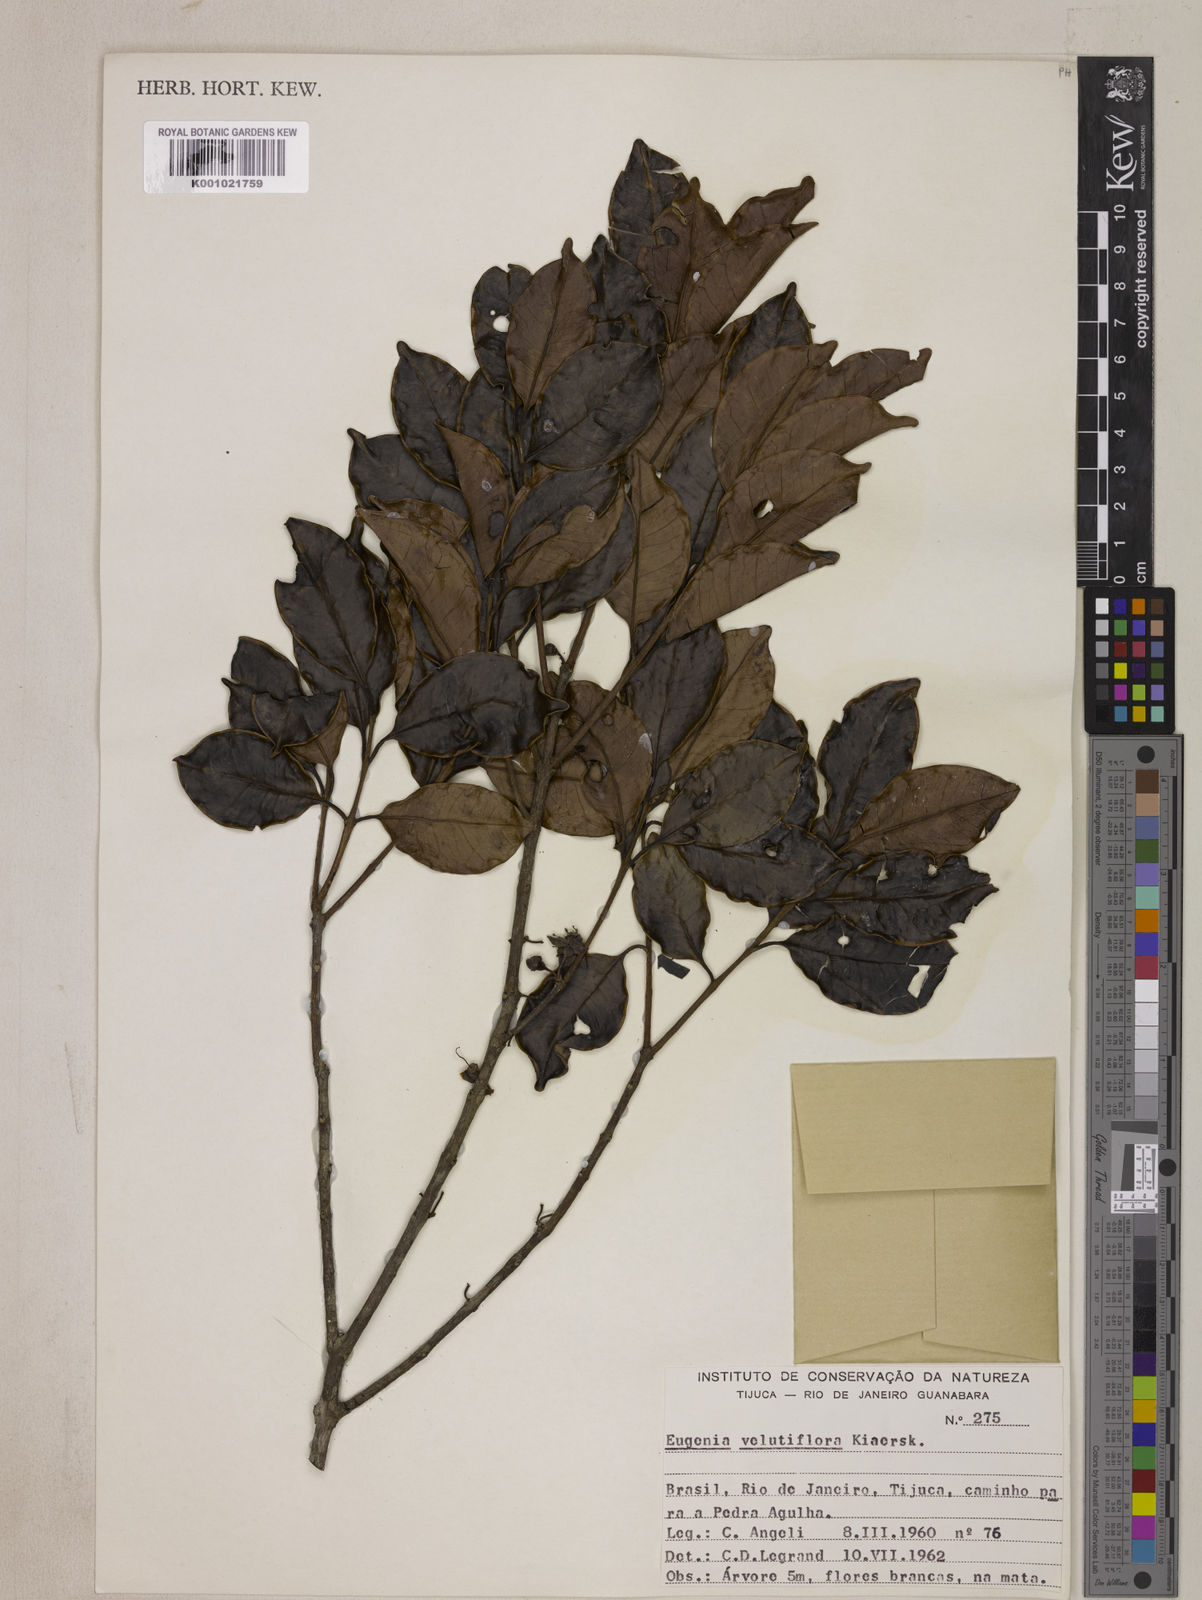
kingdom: Plantae
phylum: Tracheophyta
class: Magnoliopsida
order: Myrtales
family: Myrtaceae
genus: Eugenia
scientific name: Eugenia bahiensis
